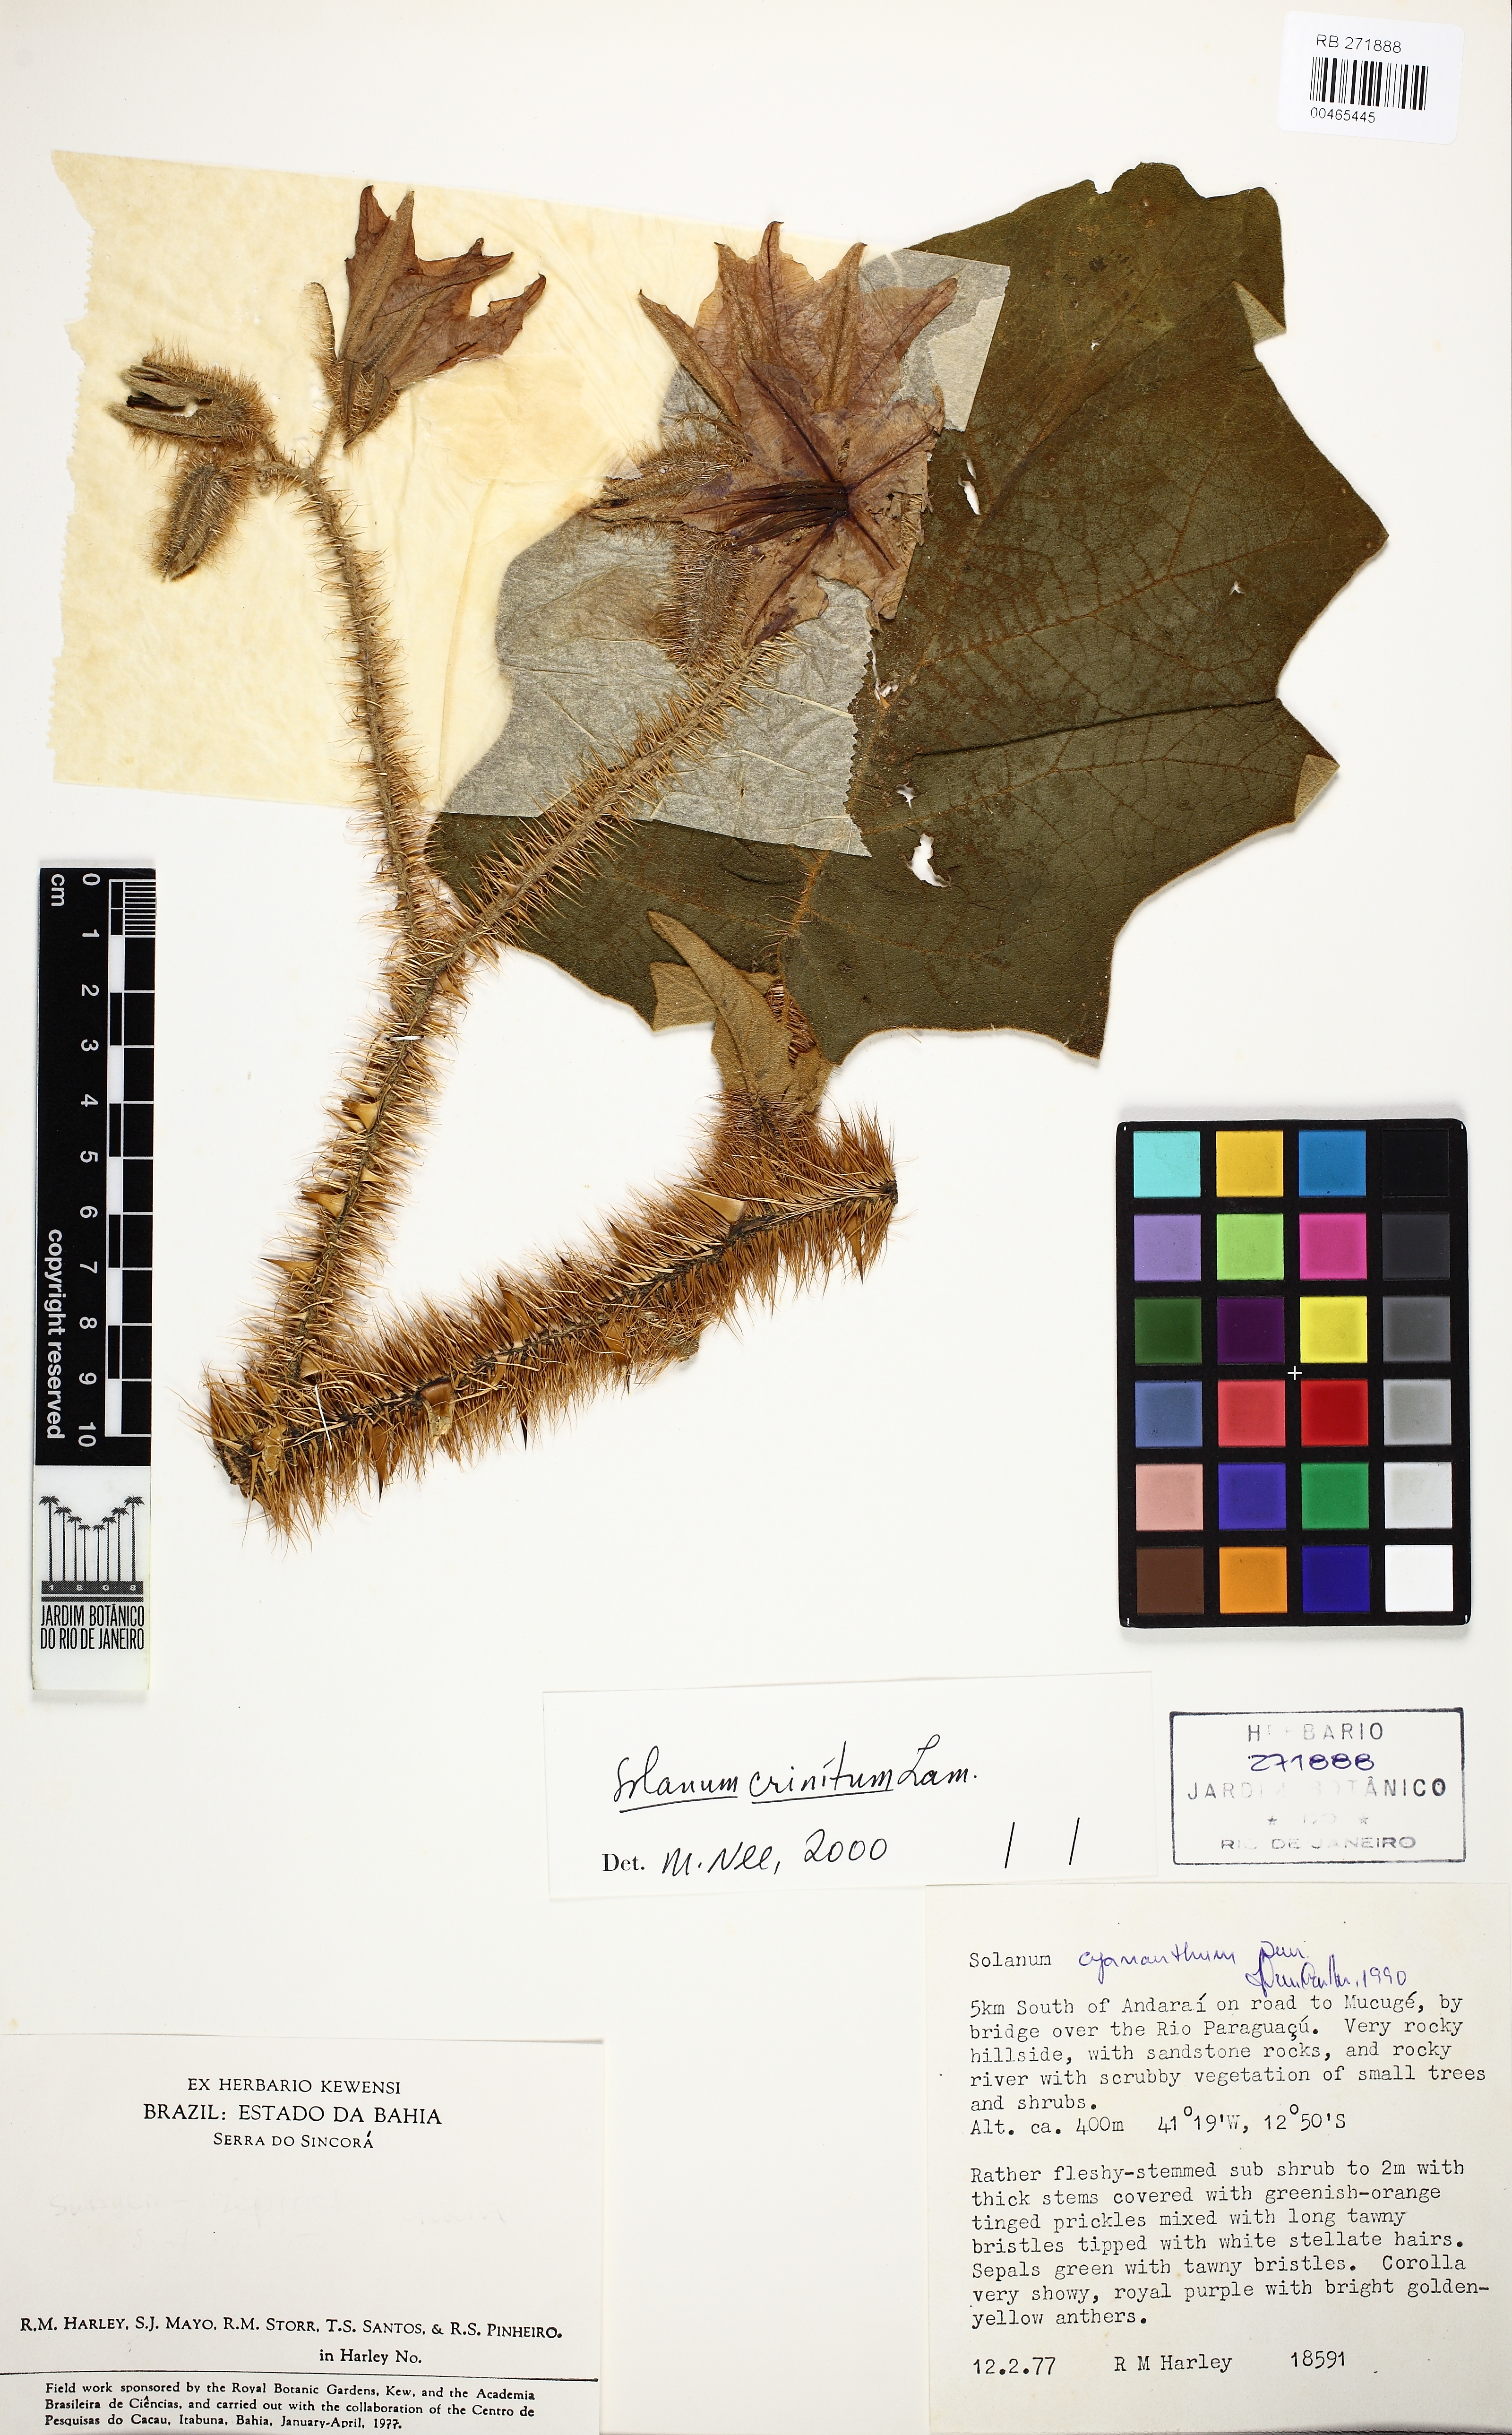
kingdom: Plantae
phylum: Tracheophyta
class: Magnoliopsida
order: Solanales
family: Solanaceae
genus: Solanum
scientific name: Solanum crinitum
